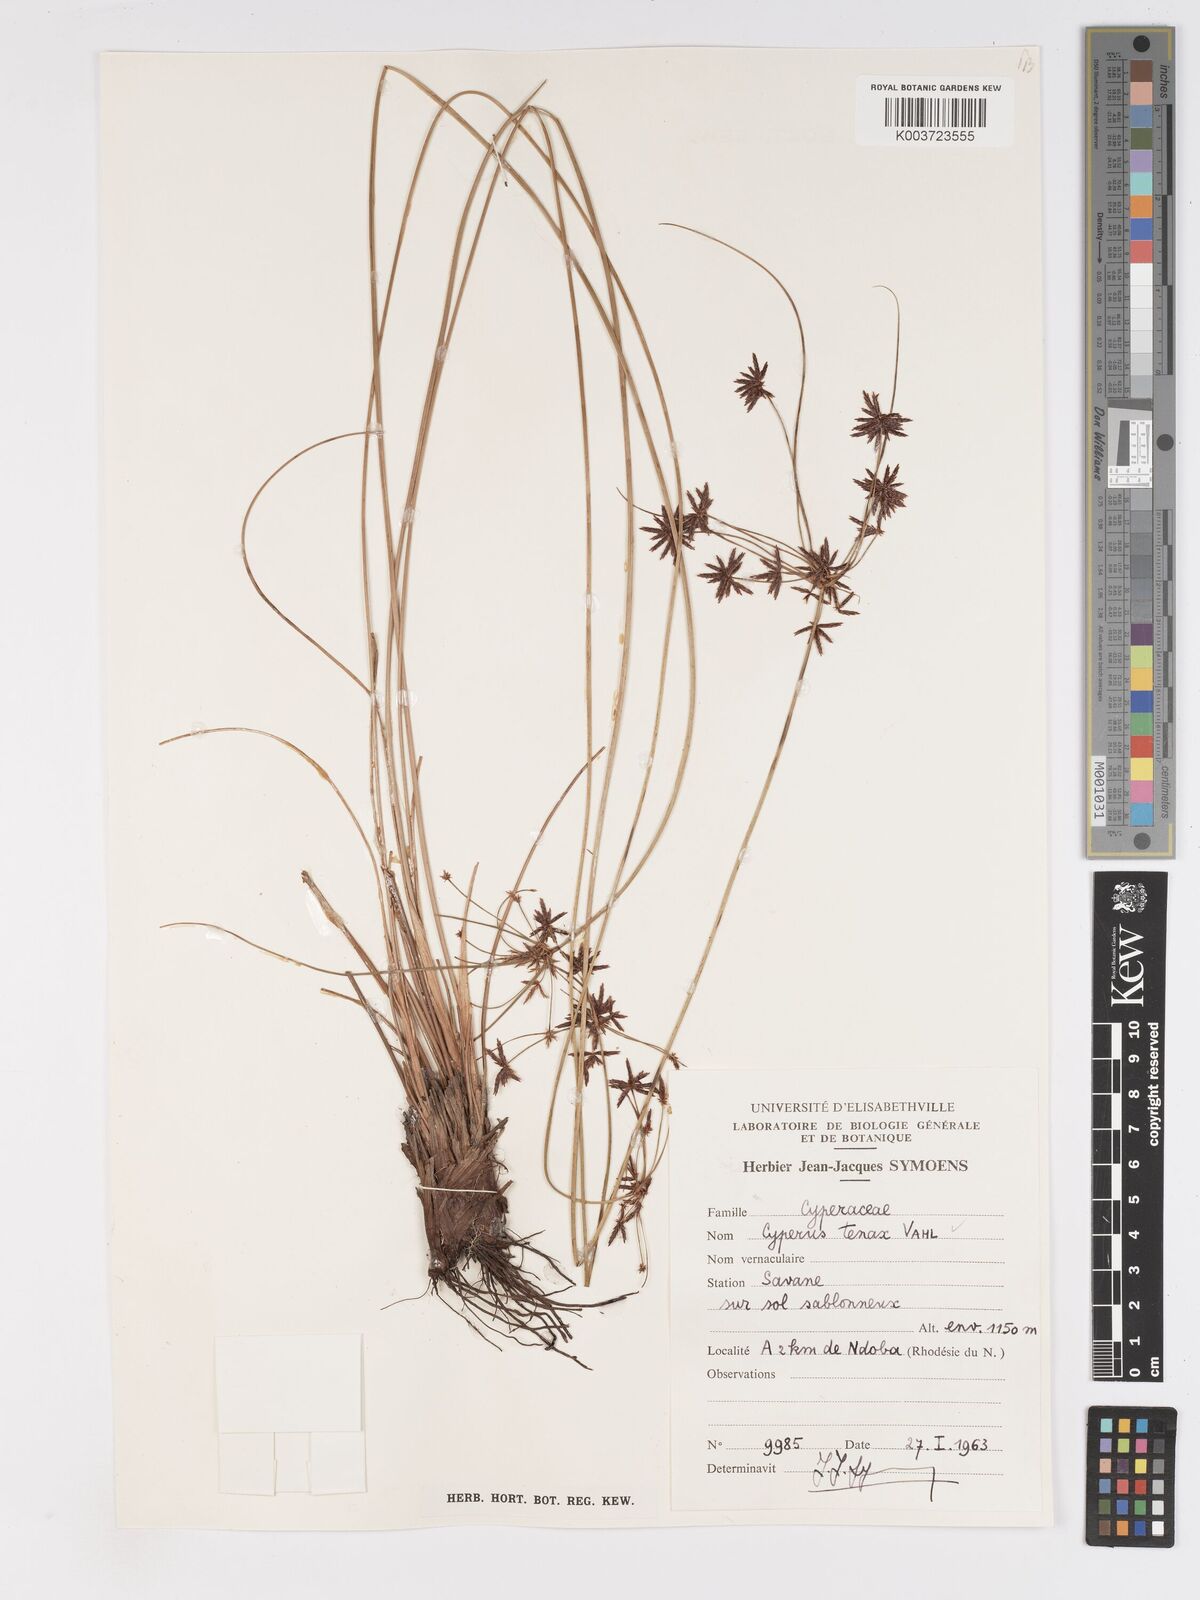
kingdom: Plantae
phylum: Tracheophyta
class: Liliopsida
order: Poales
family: Cyperaceae
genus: Cyperus
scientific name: Cyperus tenax
